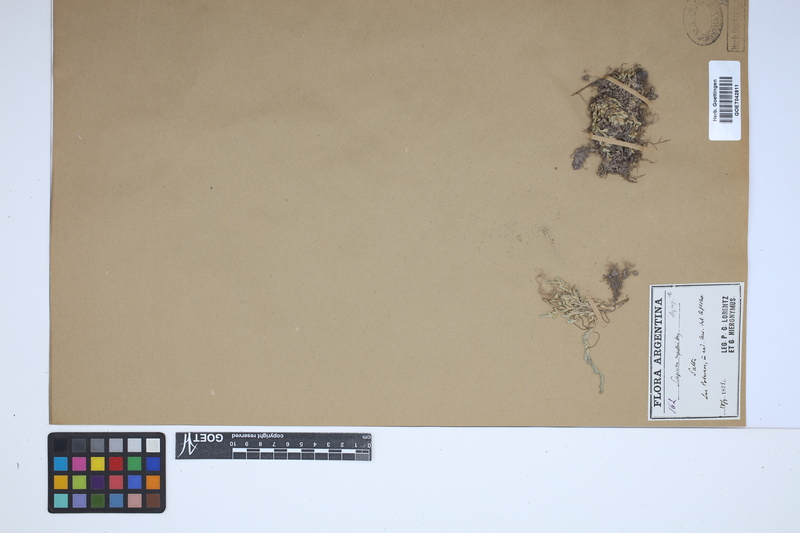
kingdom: Plantae
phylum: Tracheophyta
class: Lycopodiopsida
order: Selaginellales
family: Selaginellaceae
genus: Selaginella
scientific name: Selaginella rupestris
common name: Dwarf spikemoss
